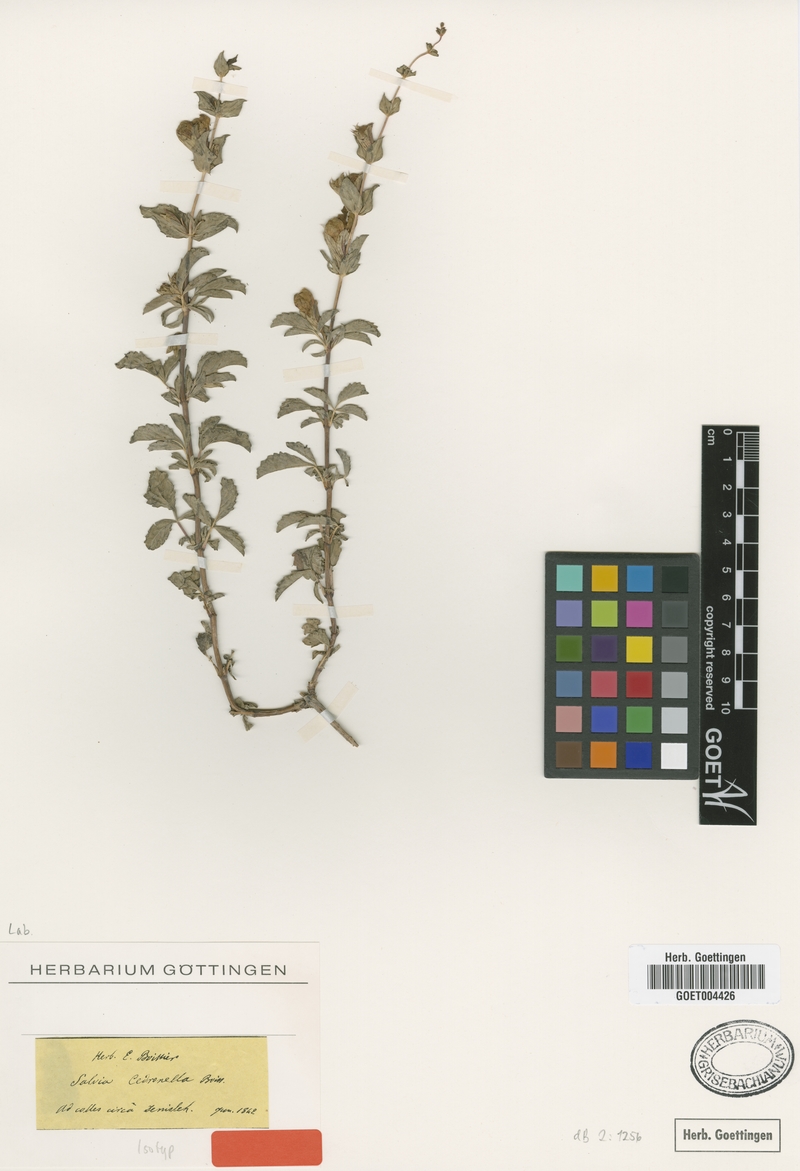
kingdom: Plantae
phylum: Tracheophyta
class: Magnoliopsida
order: Lamiales
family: Lamiaceae
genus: Salvia
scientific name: Salvia cedronella
